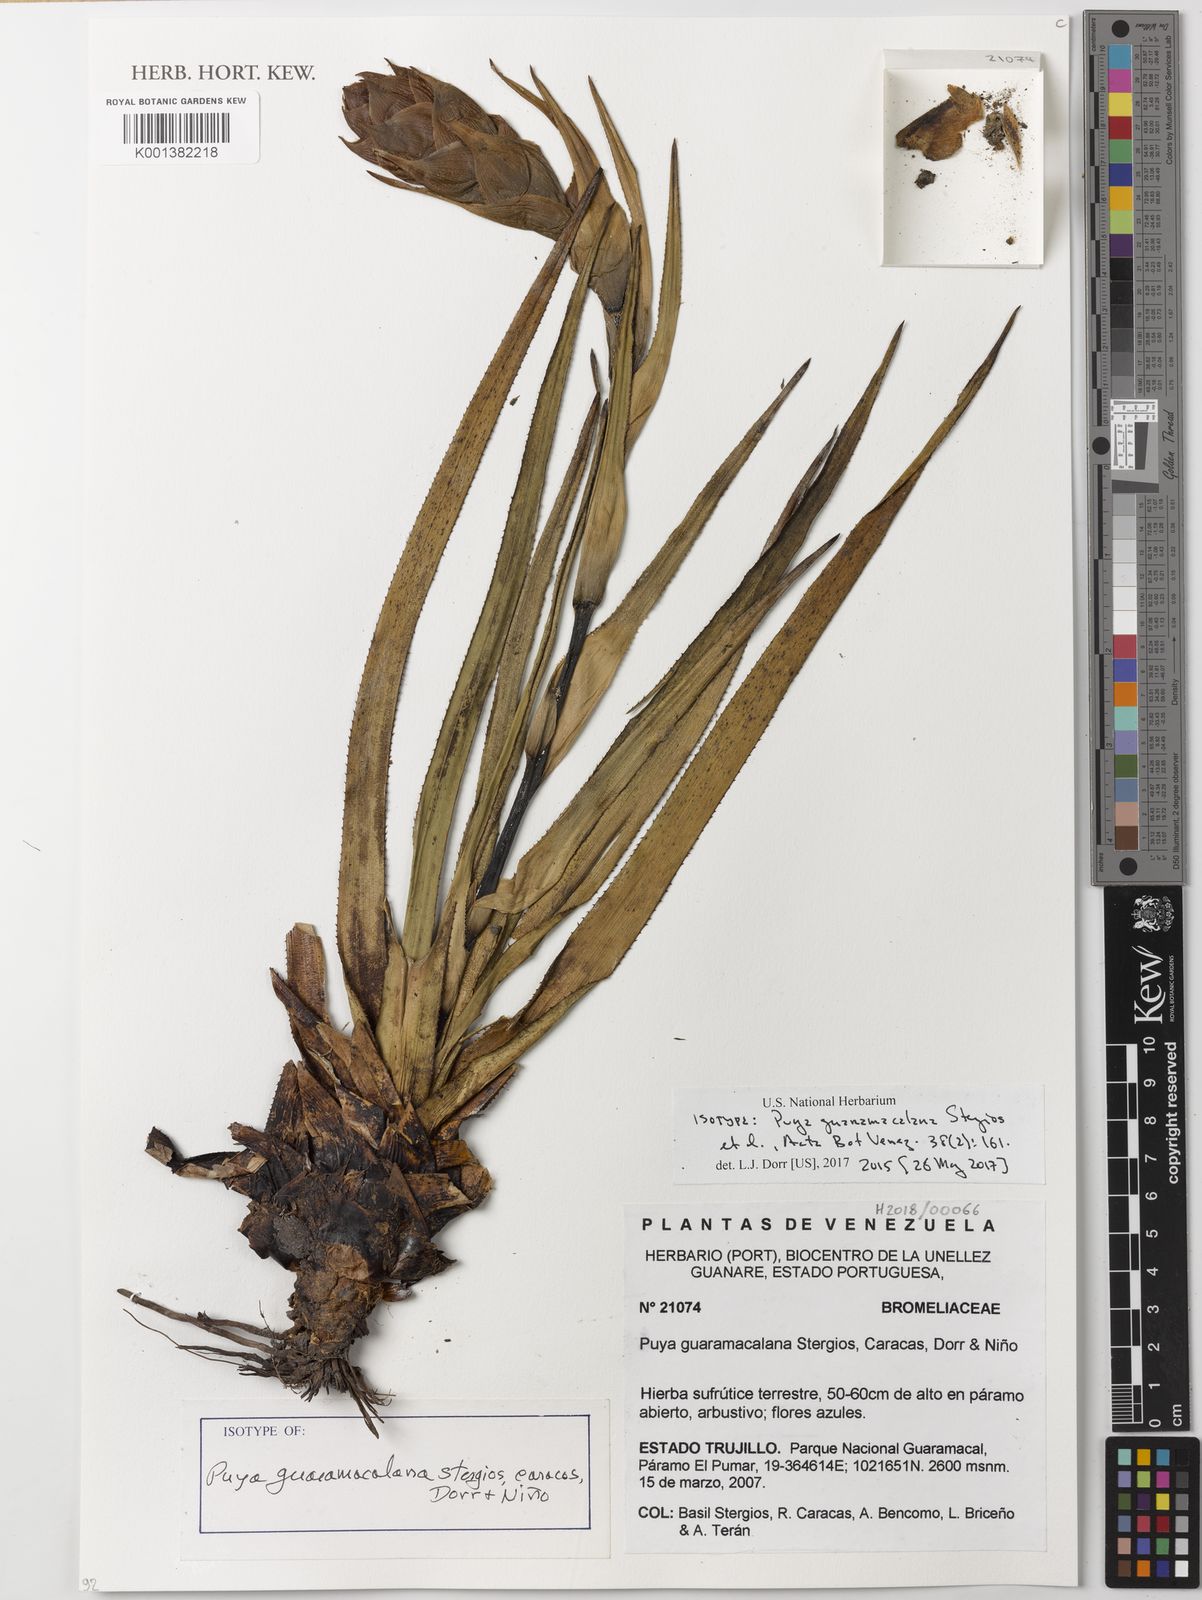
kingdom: Plantae
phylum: Tracheophyta
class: Liliopsida
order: Poales
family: Bromeliaceae
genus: Puya
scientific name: Puya
